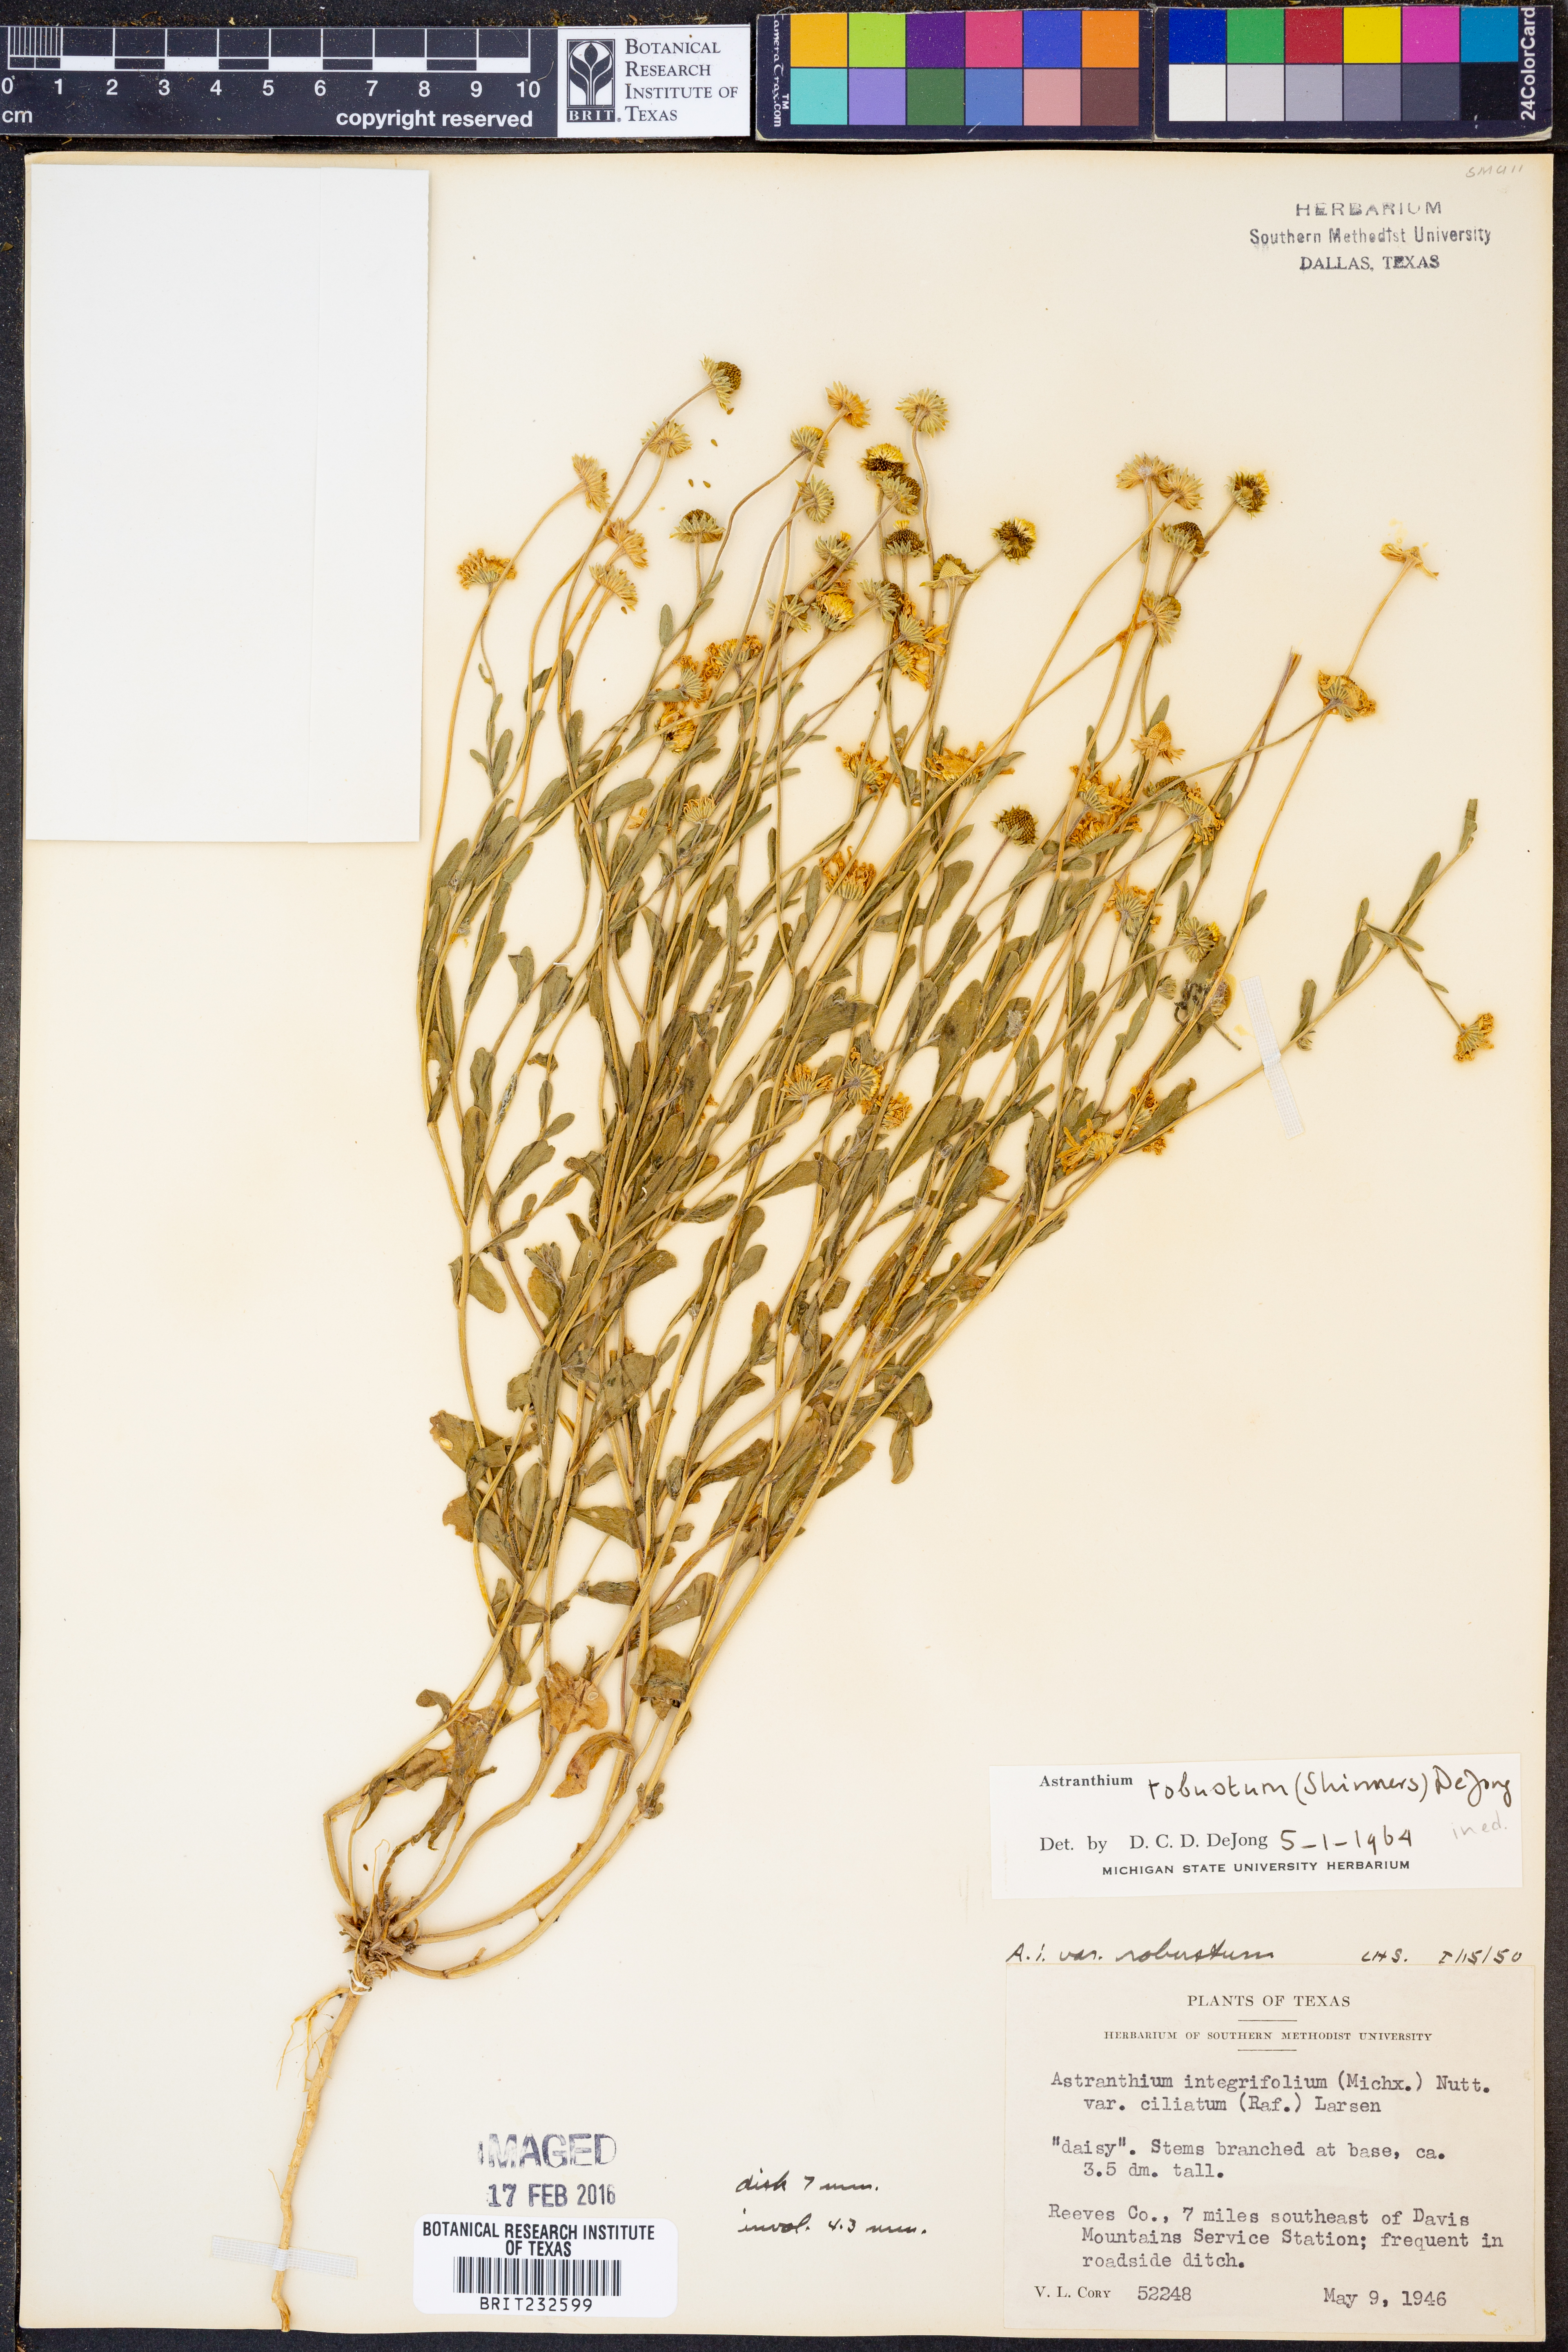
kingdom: Plantae
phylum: Tracheophyta
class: Magnoliopsida
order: Asterales
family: Asteraceae
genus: Astranthium
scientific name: Astranthium robustum
